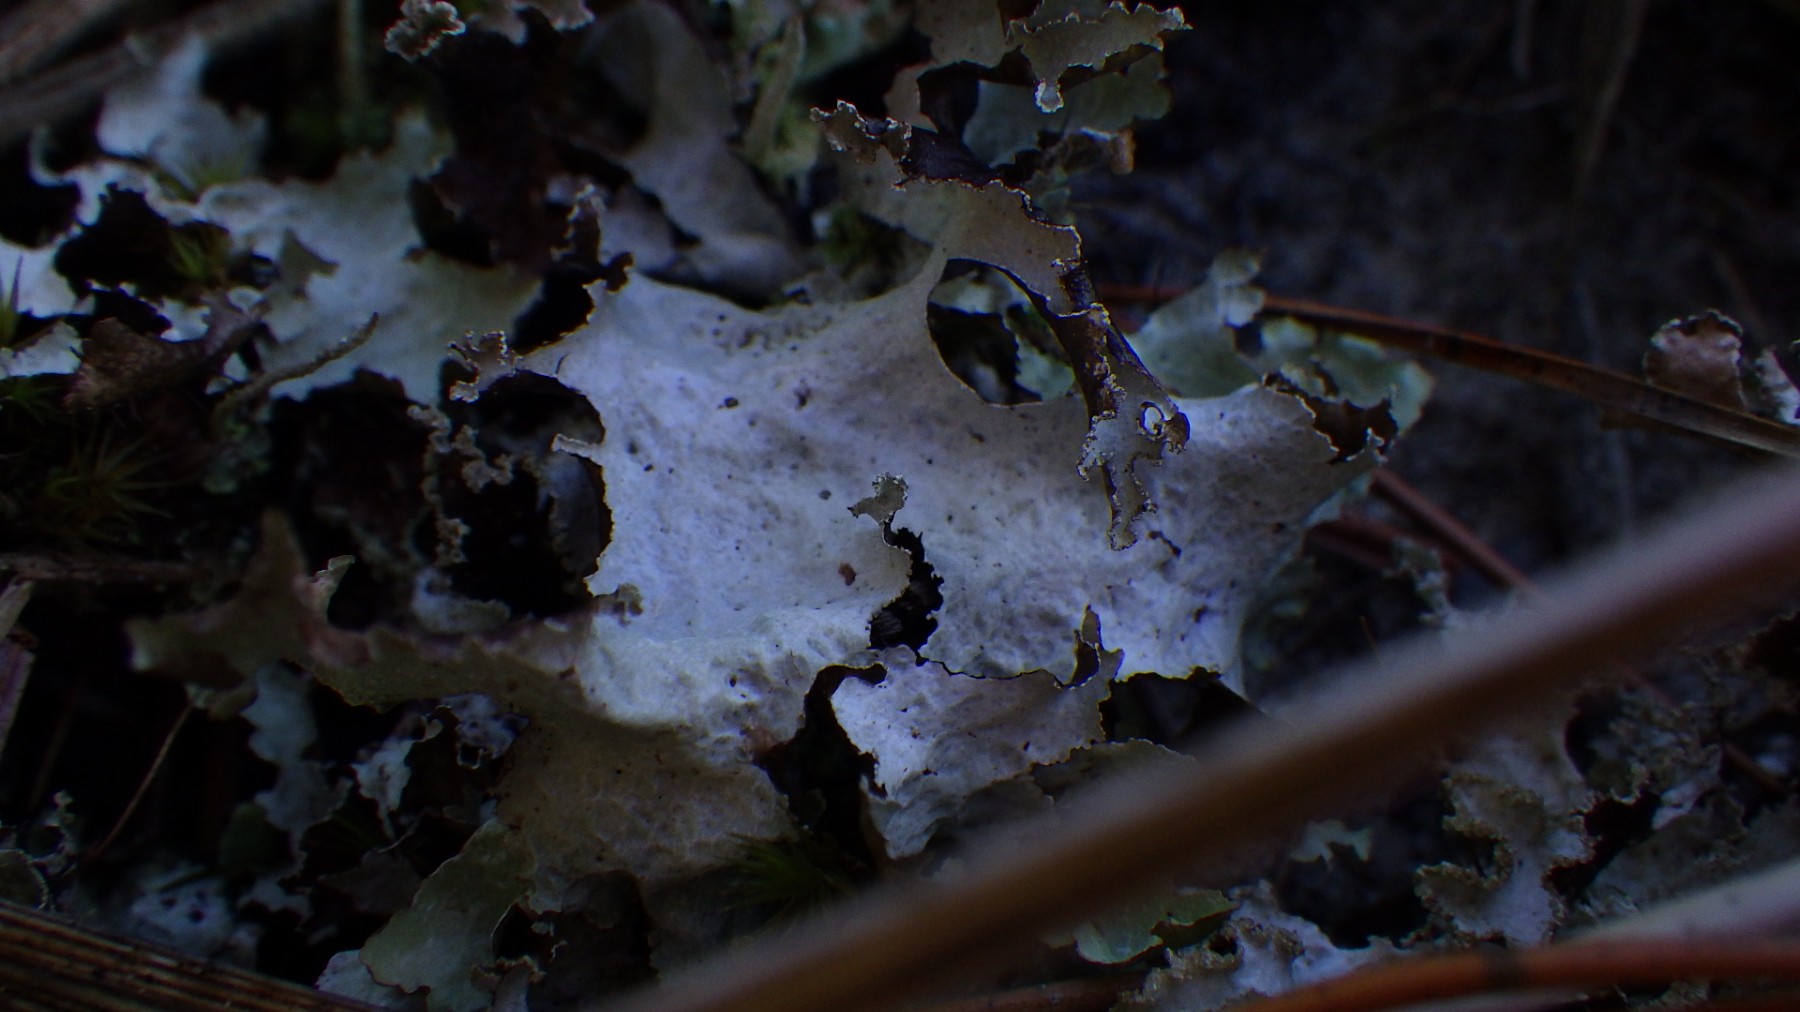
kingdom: Fungi
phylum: Ascomycota
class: Lecanoromycetes
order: Lecanorales
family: Parmeliaceae
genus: Platismatia
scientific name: Platismatia glauca
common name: blågrå papirlav
